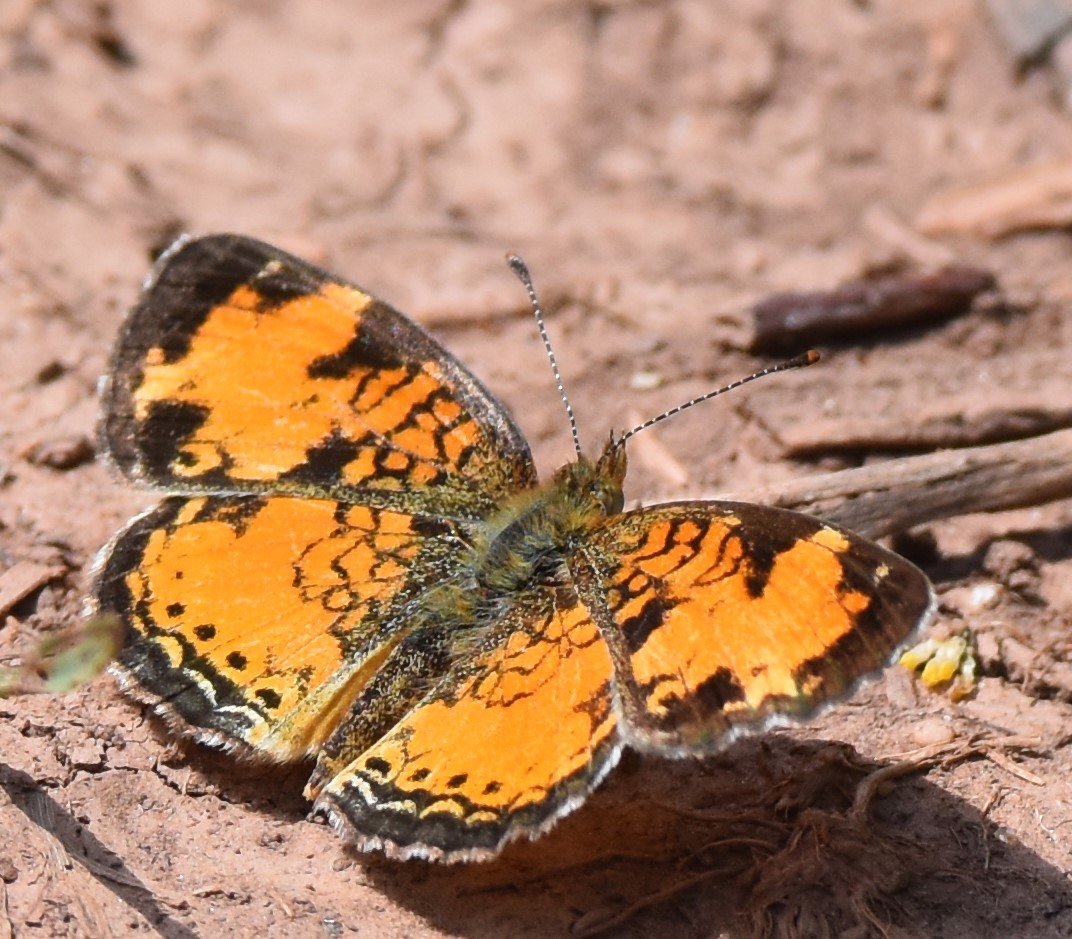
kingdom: Animalia
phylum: Arthropoda
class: Insecta
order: Lepidoptera
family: Nymphalidae
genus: Phyciodes
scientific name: Phyciodes tharos
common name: Northern Crescent
